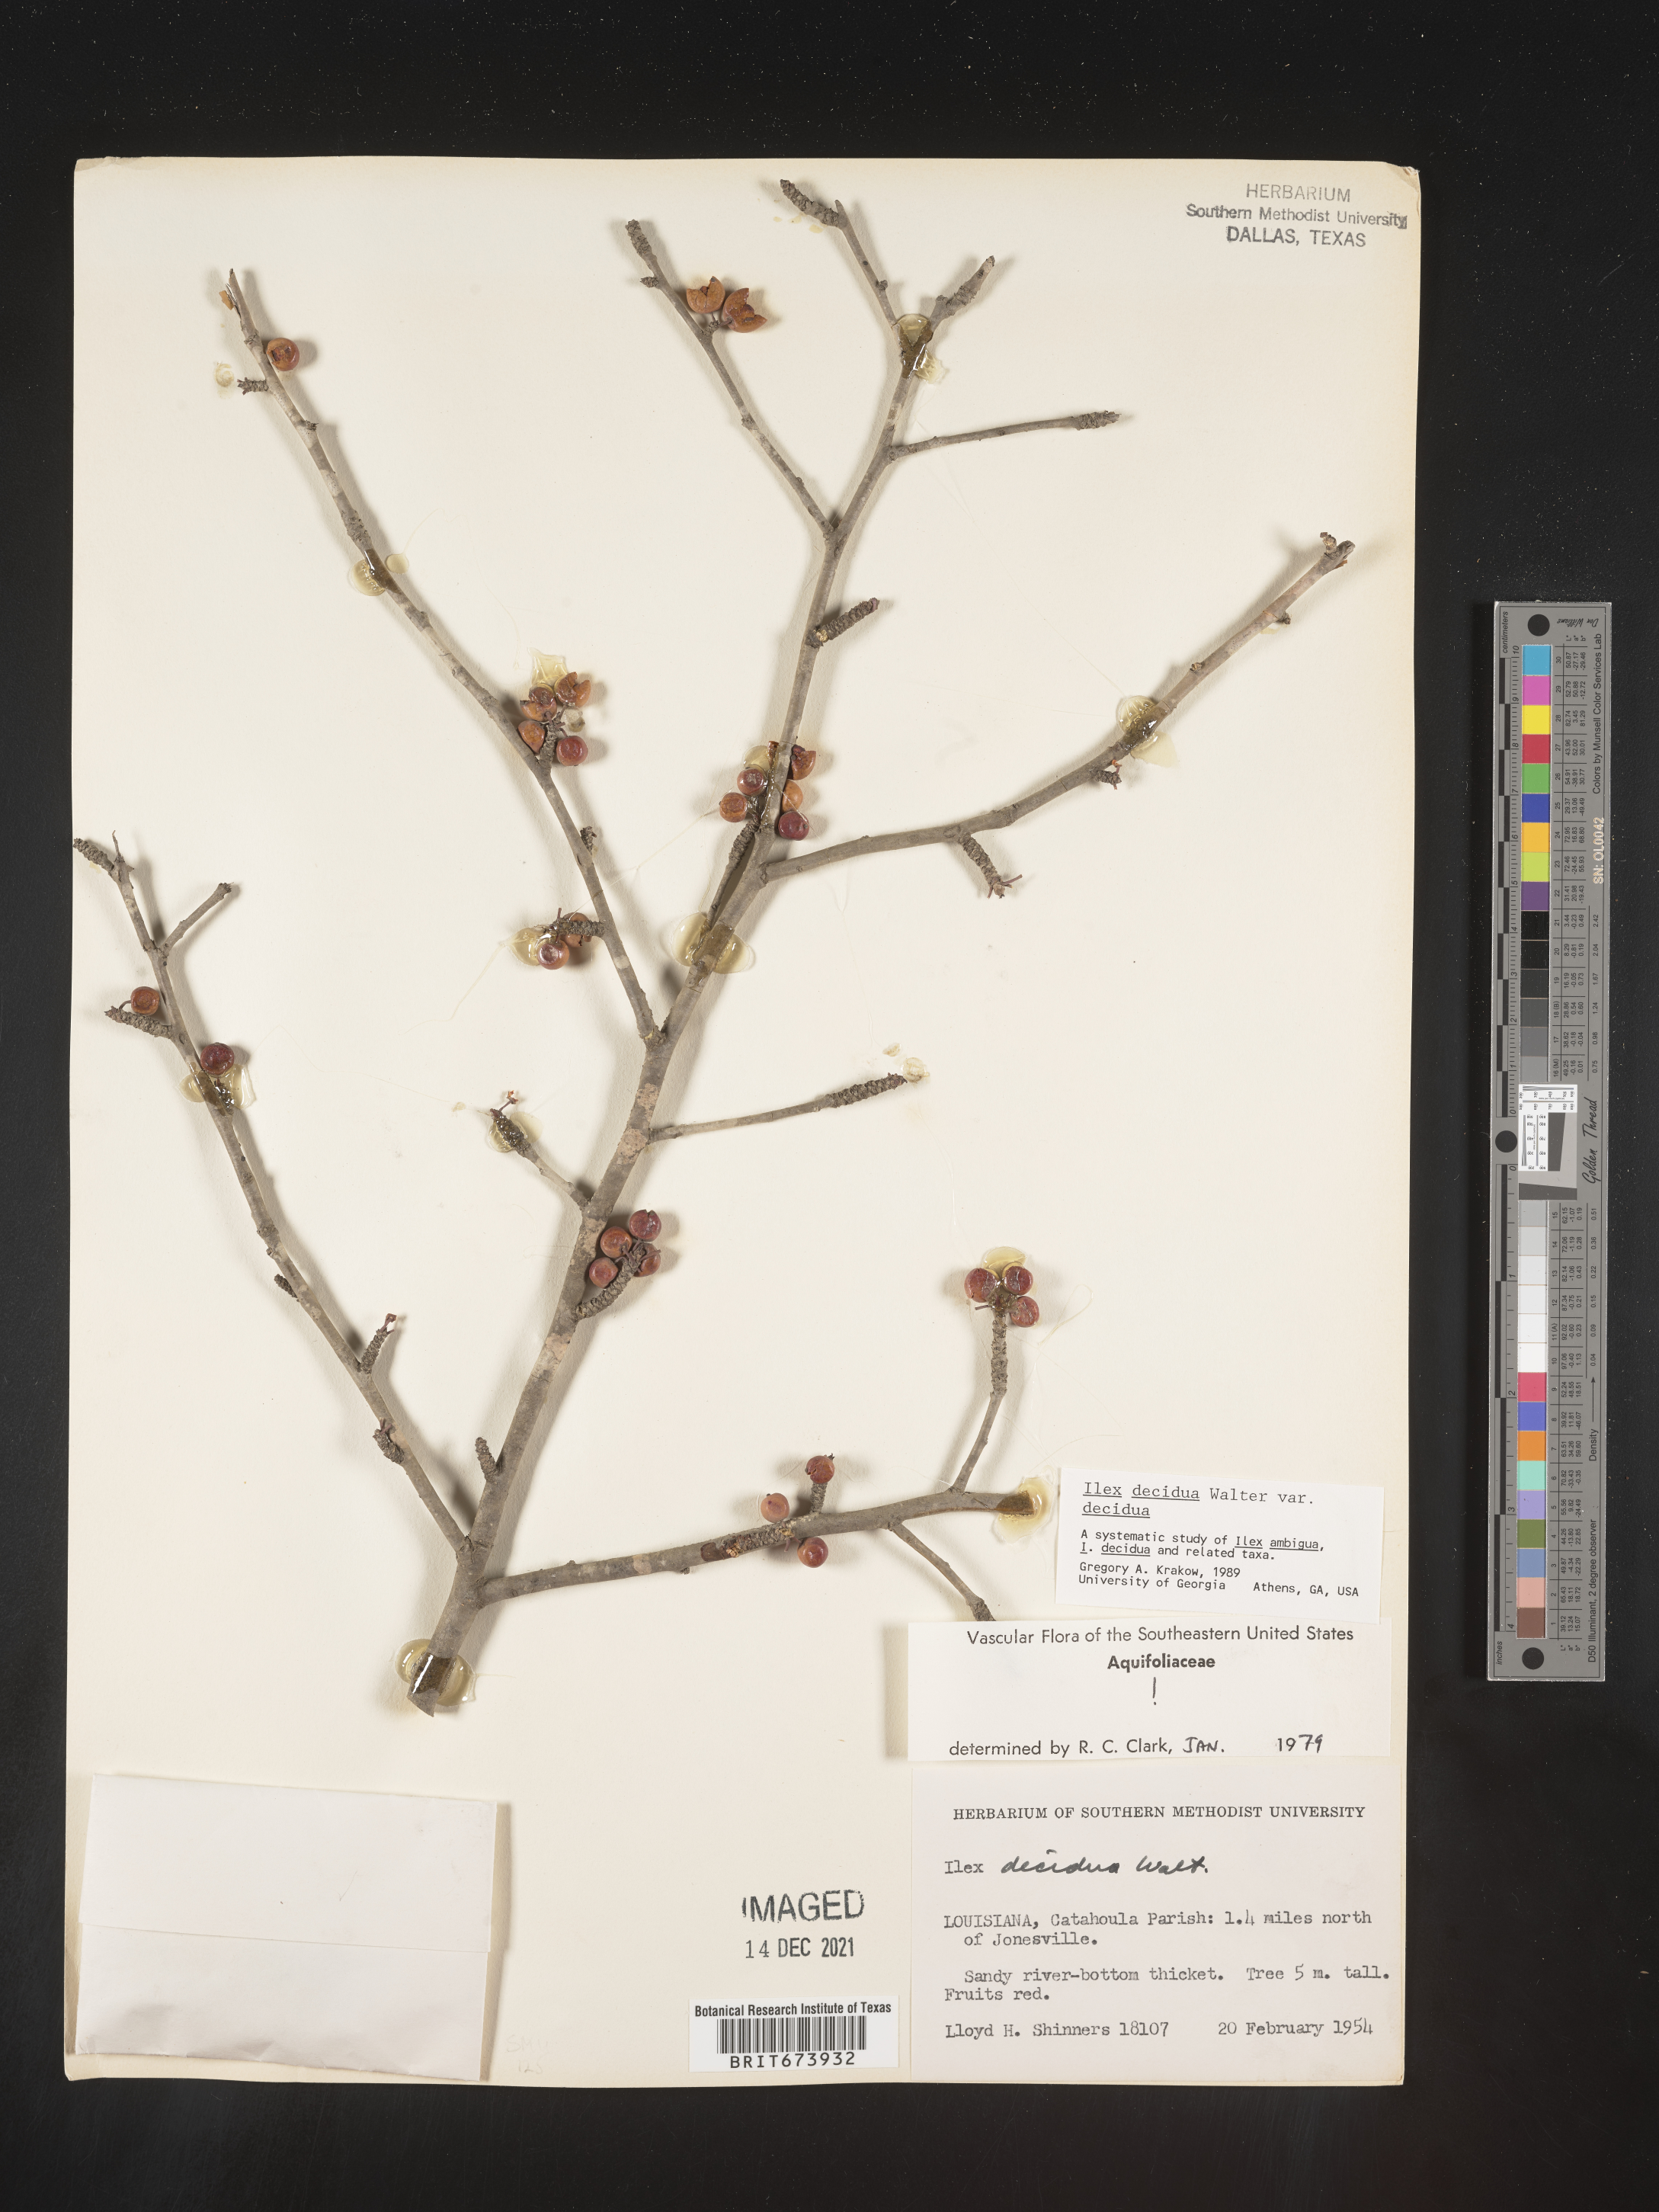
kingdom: Plantae
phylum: Tracheophyta
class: Magnoliopsida
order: Aquifoliales
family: Aquifoliaceae
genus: Ilex
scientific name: Ilex decidua
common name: Possum-haw
